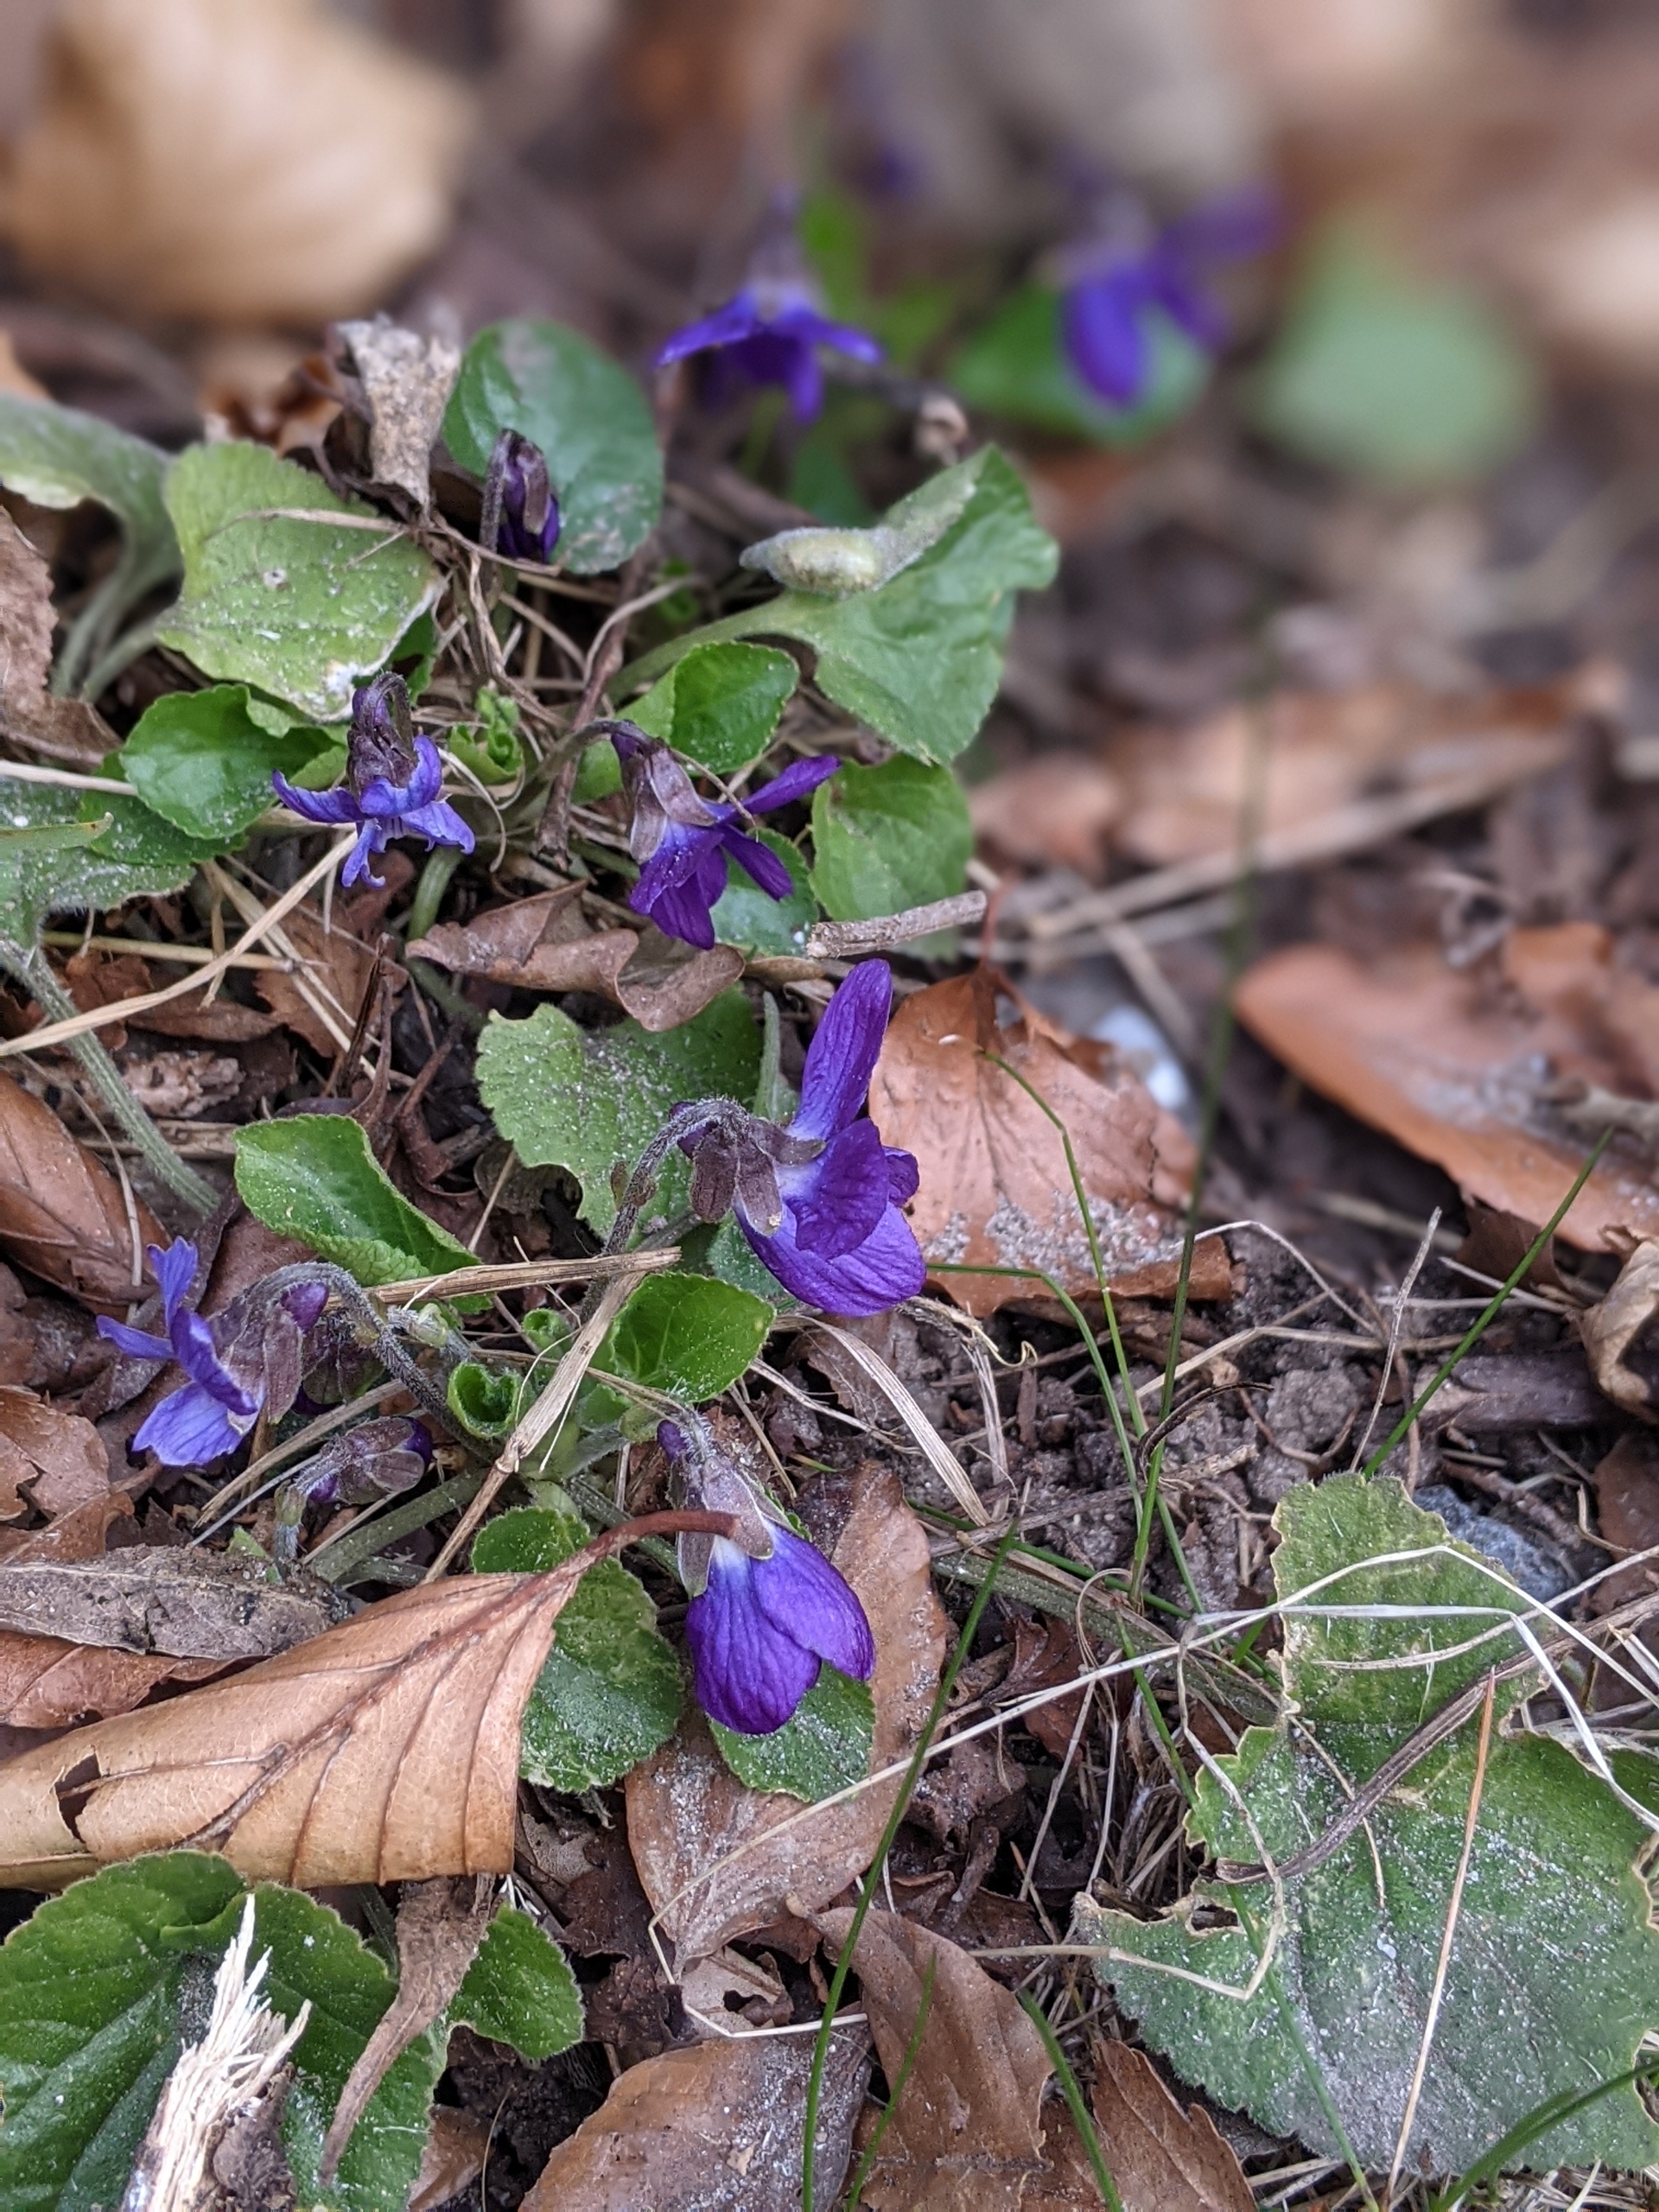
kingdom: Plantae
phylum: Tracheophyta
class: Magnoliopsida
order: Malpighiales
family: Violaceae
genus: Viola
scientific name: Viola odorata
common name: Marts-viol
